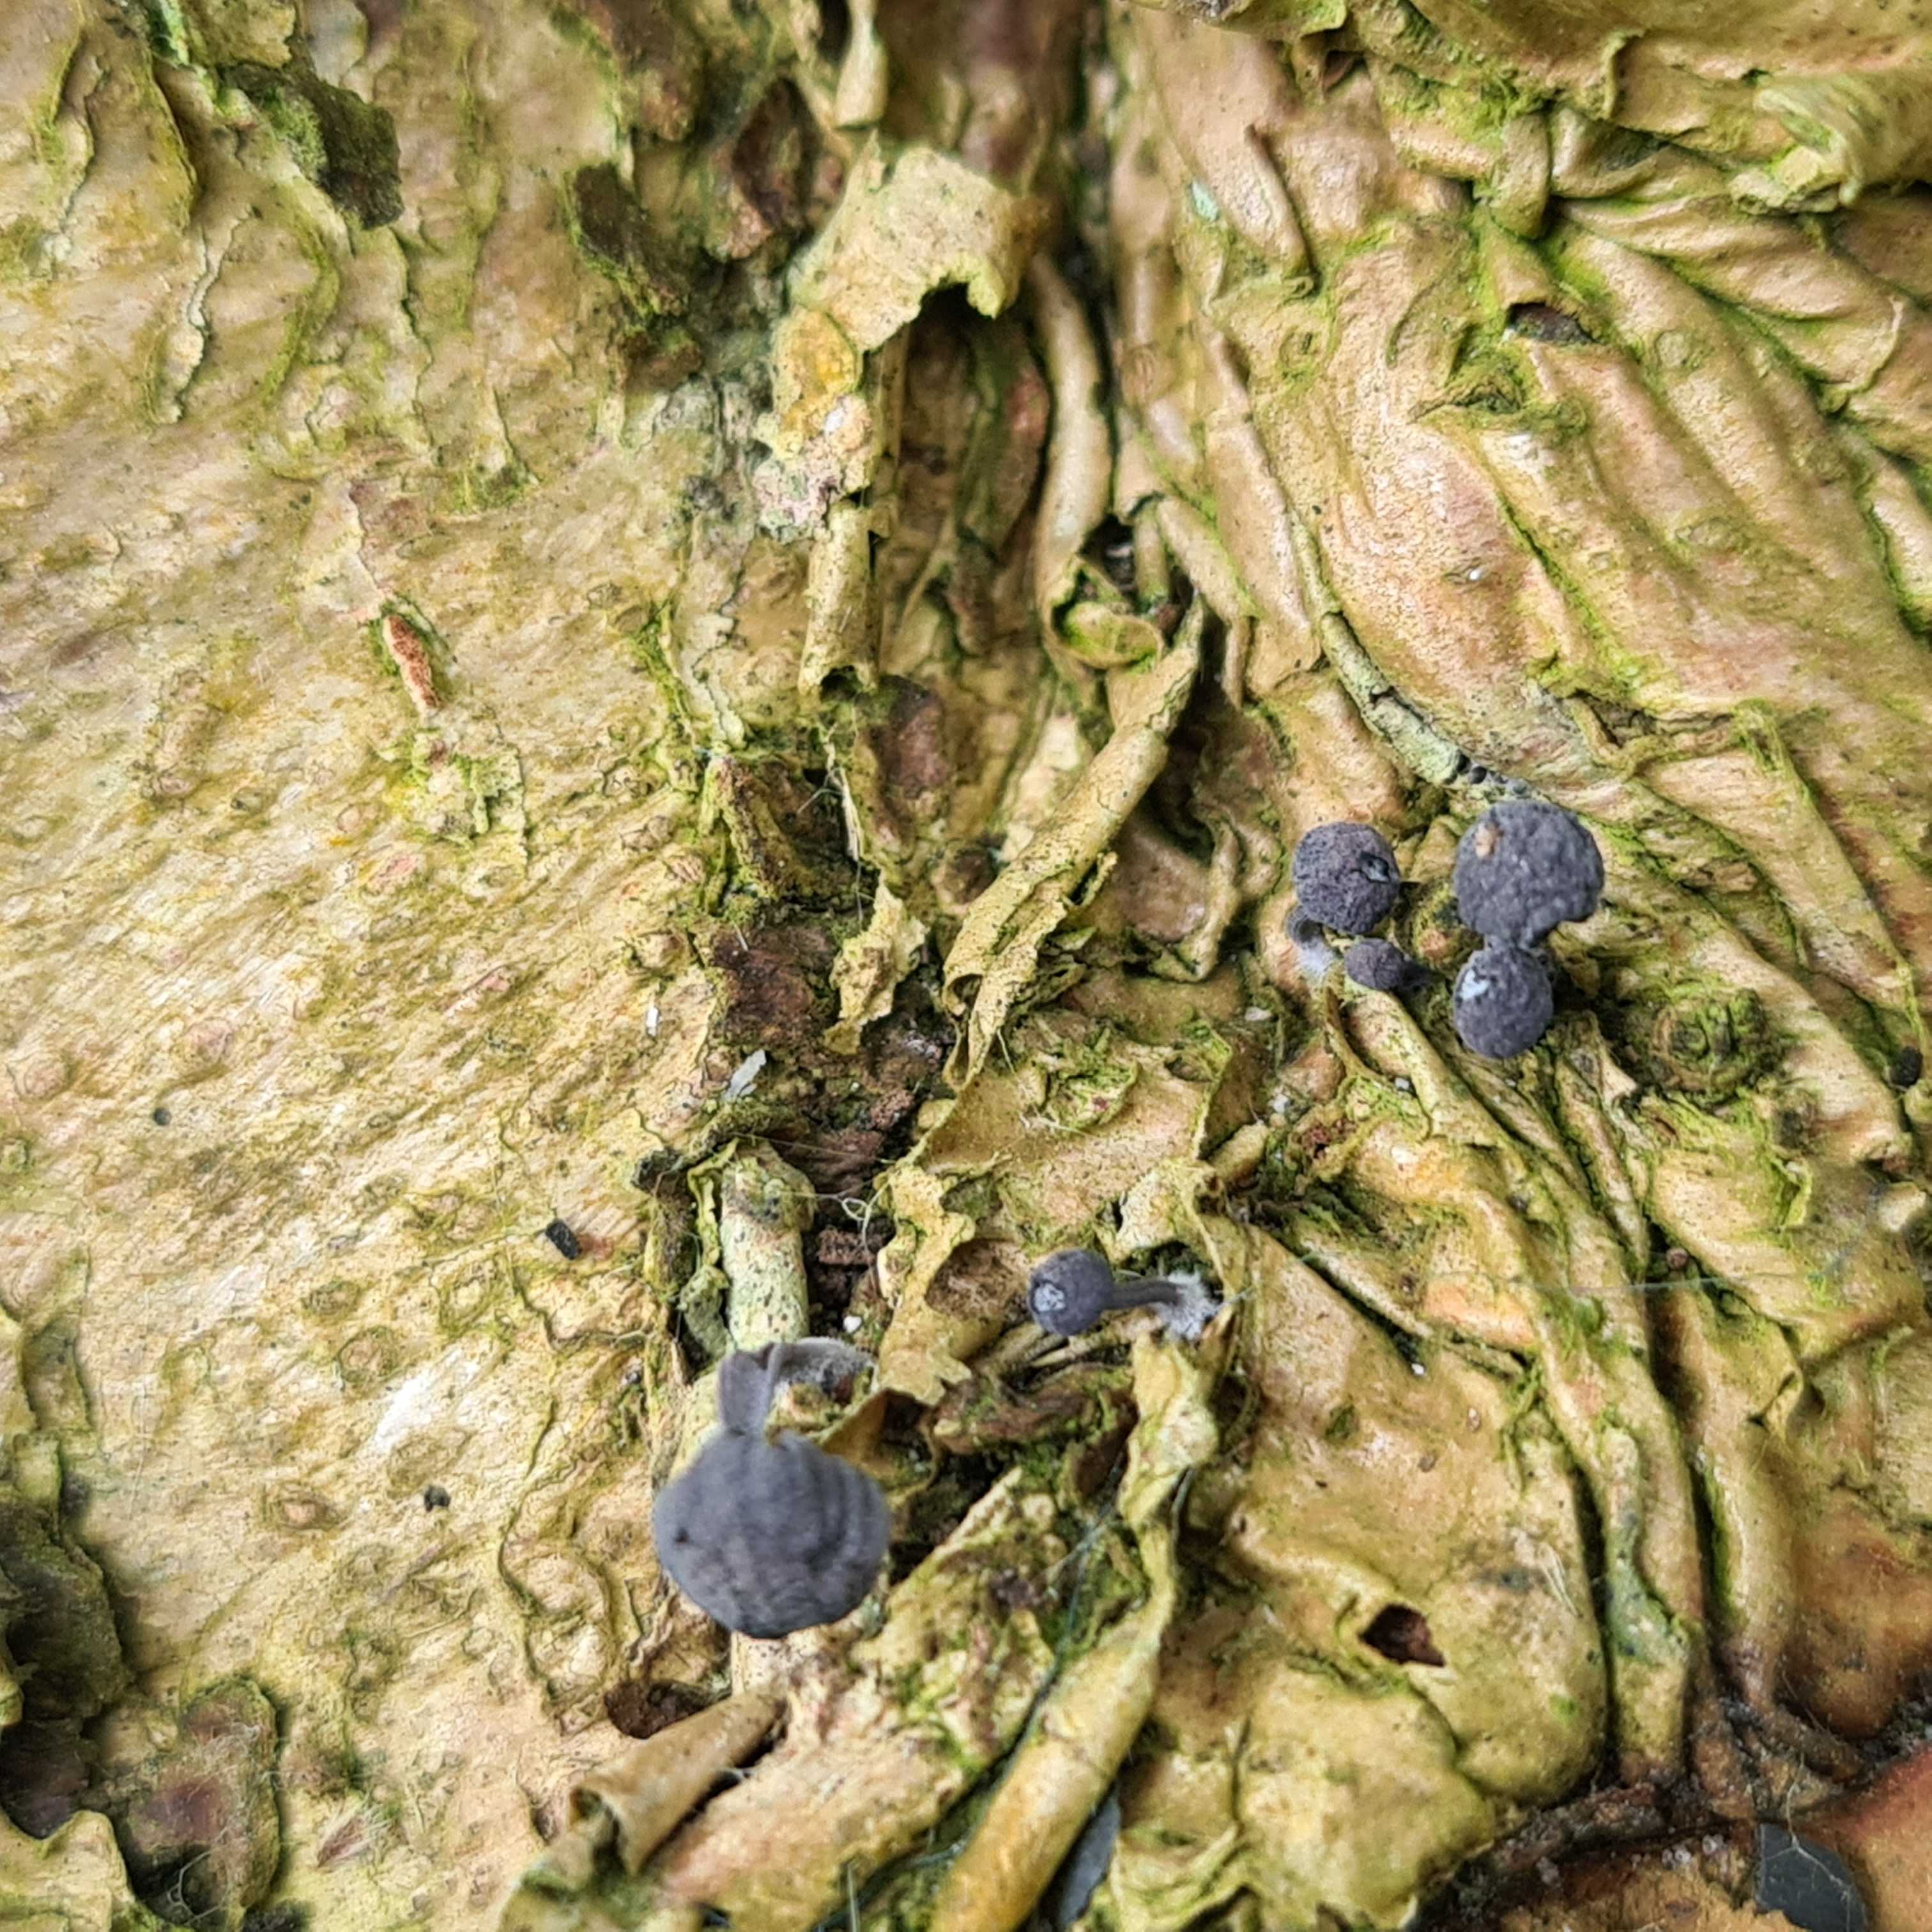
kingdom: Fungi
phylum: Basidiomycota
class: Agaricomycetes
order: Agaricales
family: Mycenaceae
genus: Mycena
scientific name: Mycena pseudocorticola
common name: gråblå bark-huesvamp
